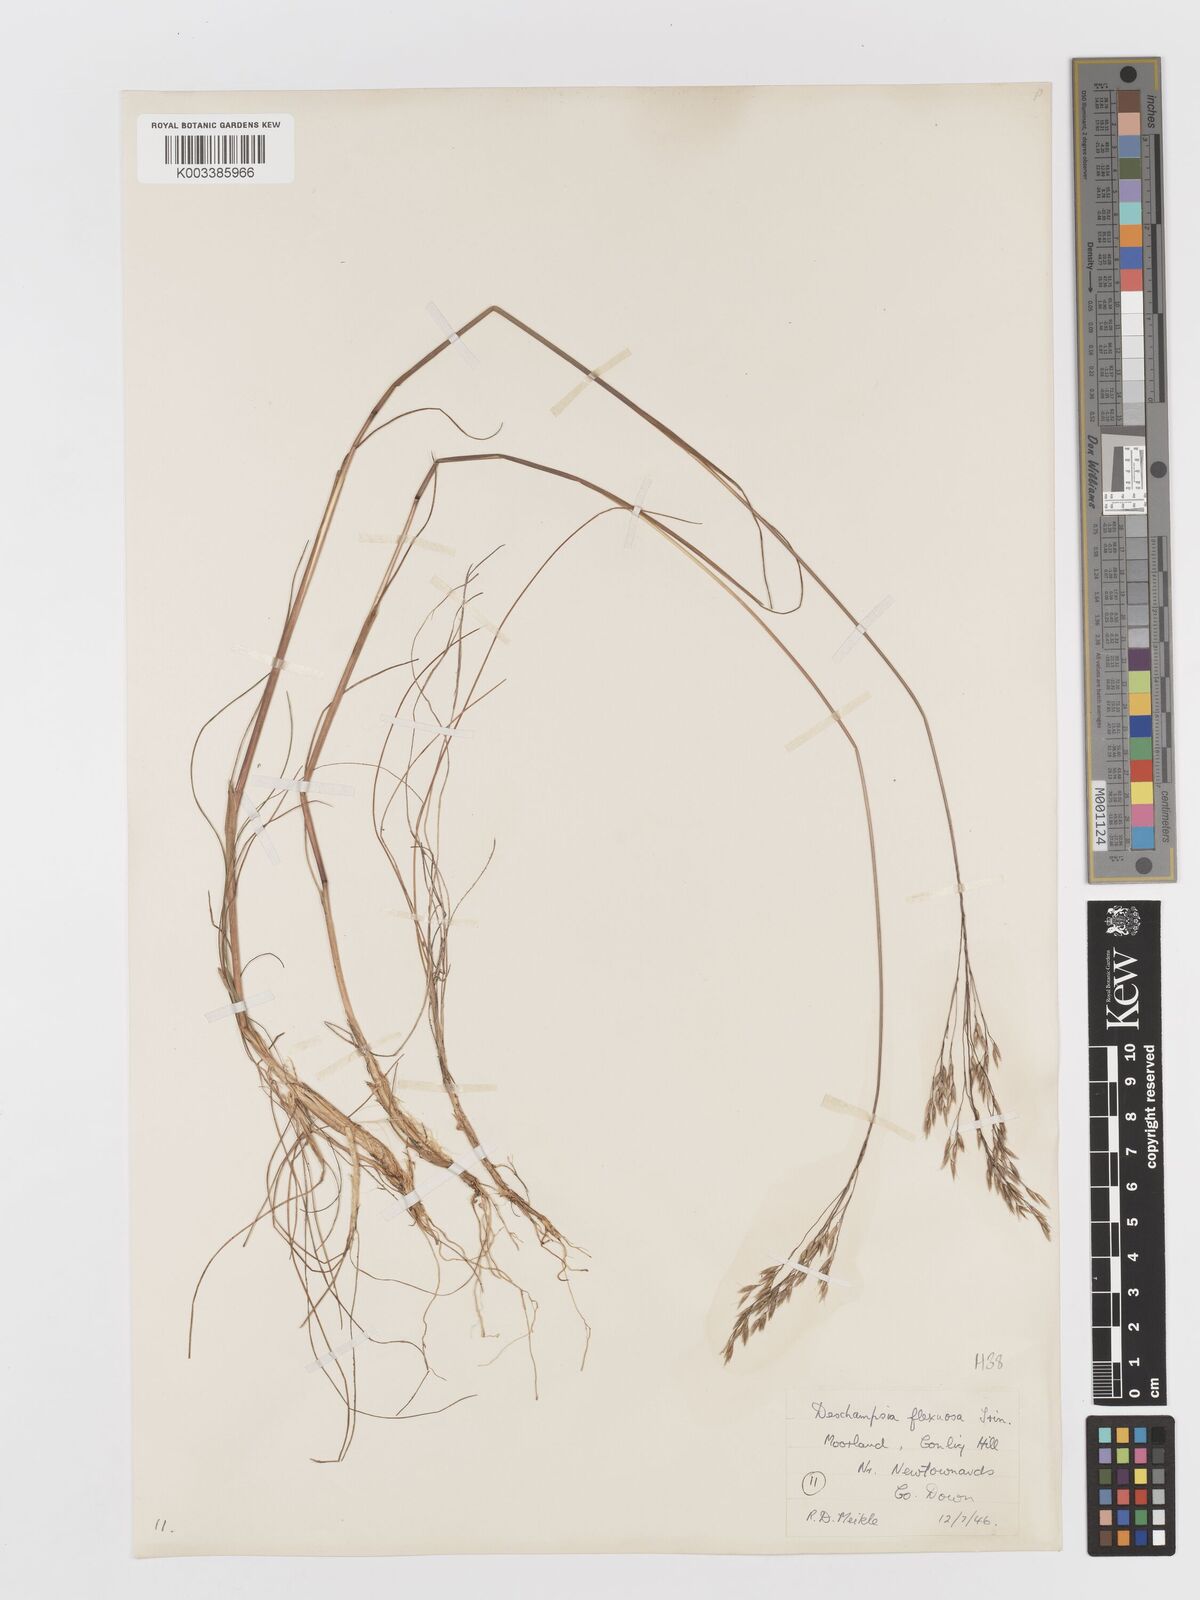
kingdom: Plantae
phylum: Tracheophyta
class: Liliopsida
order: Poales
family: Poaceae
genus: Avenella
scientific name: Avenella flexuosa
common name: Wavy hairgrass
